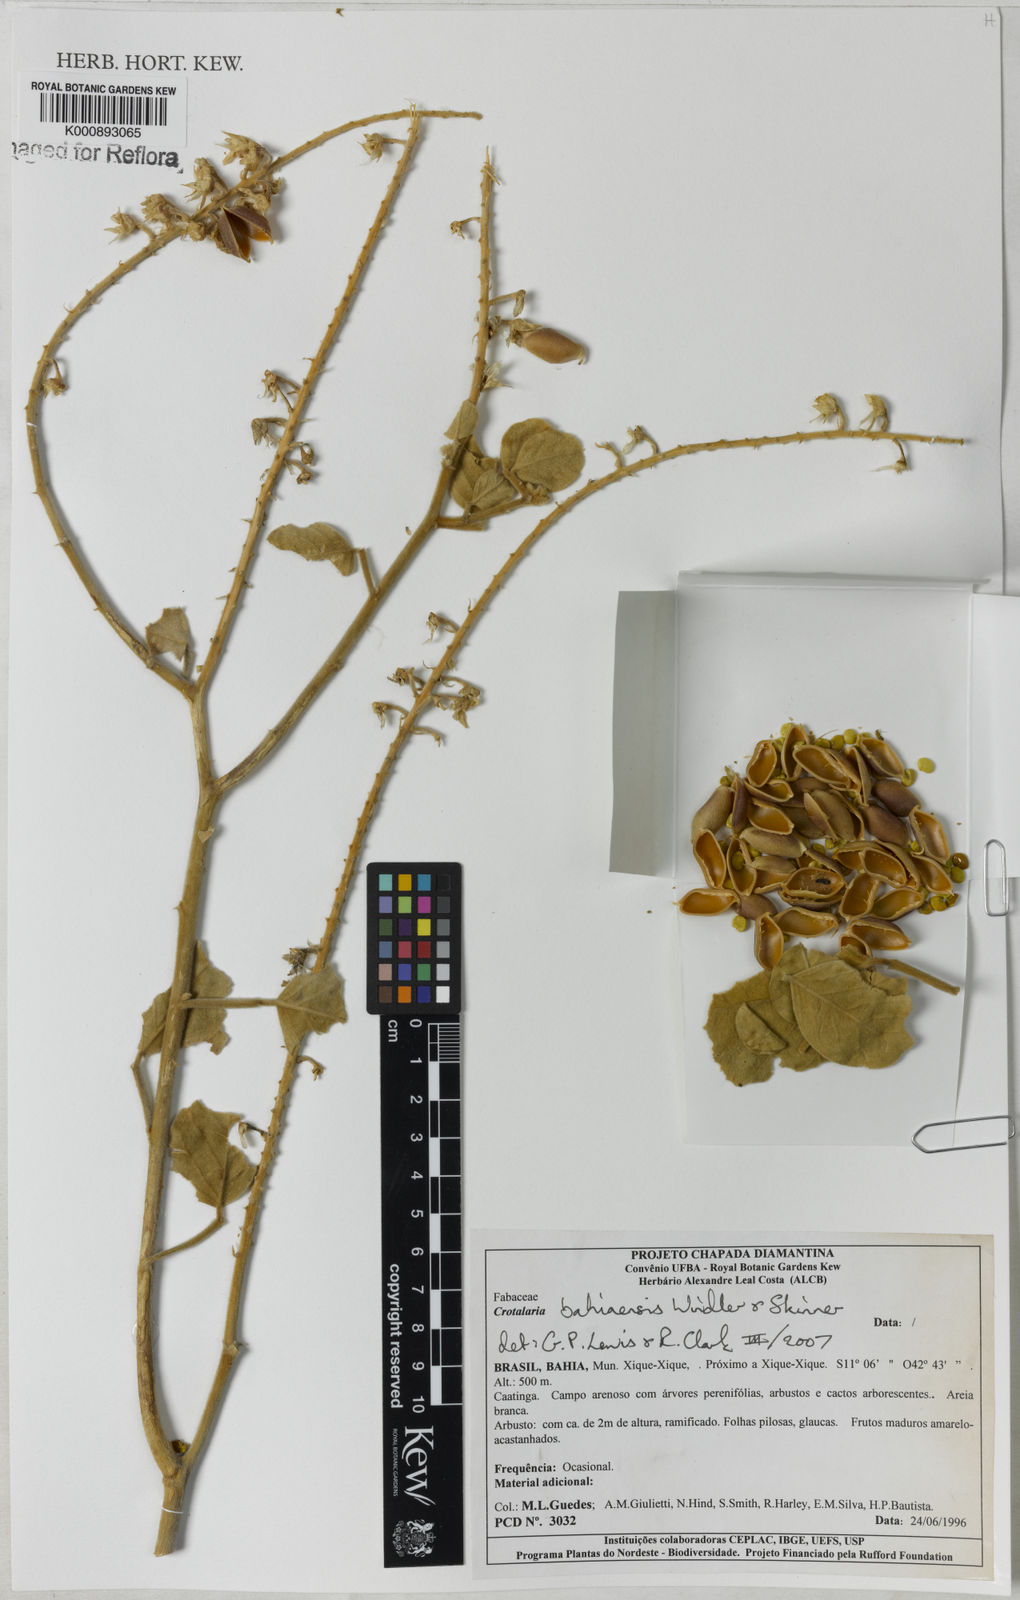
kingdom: Plantae
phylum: Tracheophyta
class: Magnoliopsida
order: Fabales
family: Fabaceae
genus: Crotalaria
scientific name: Crotalaria
